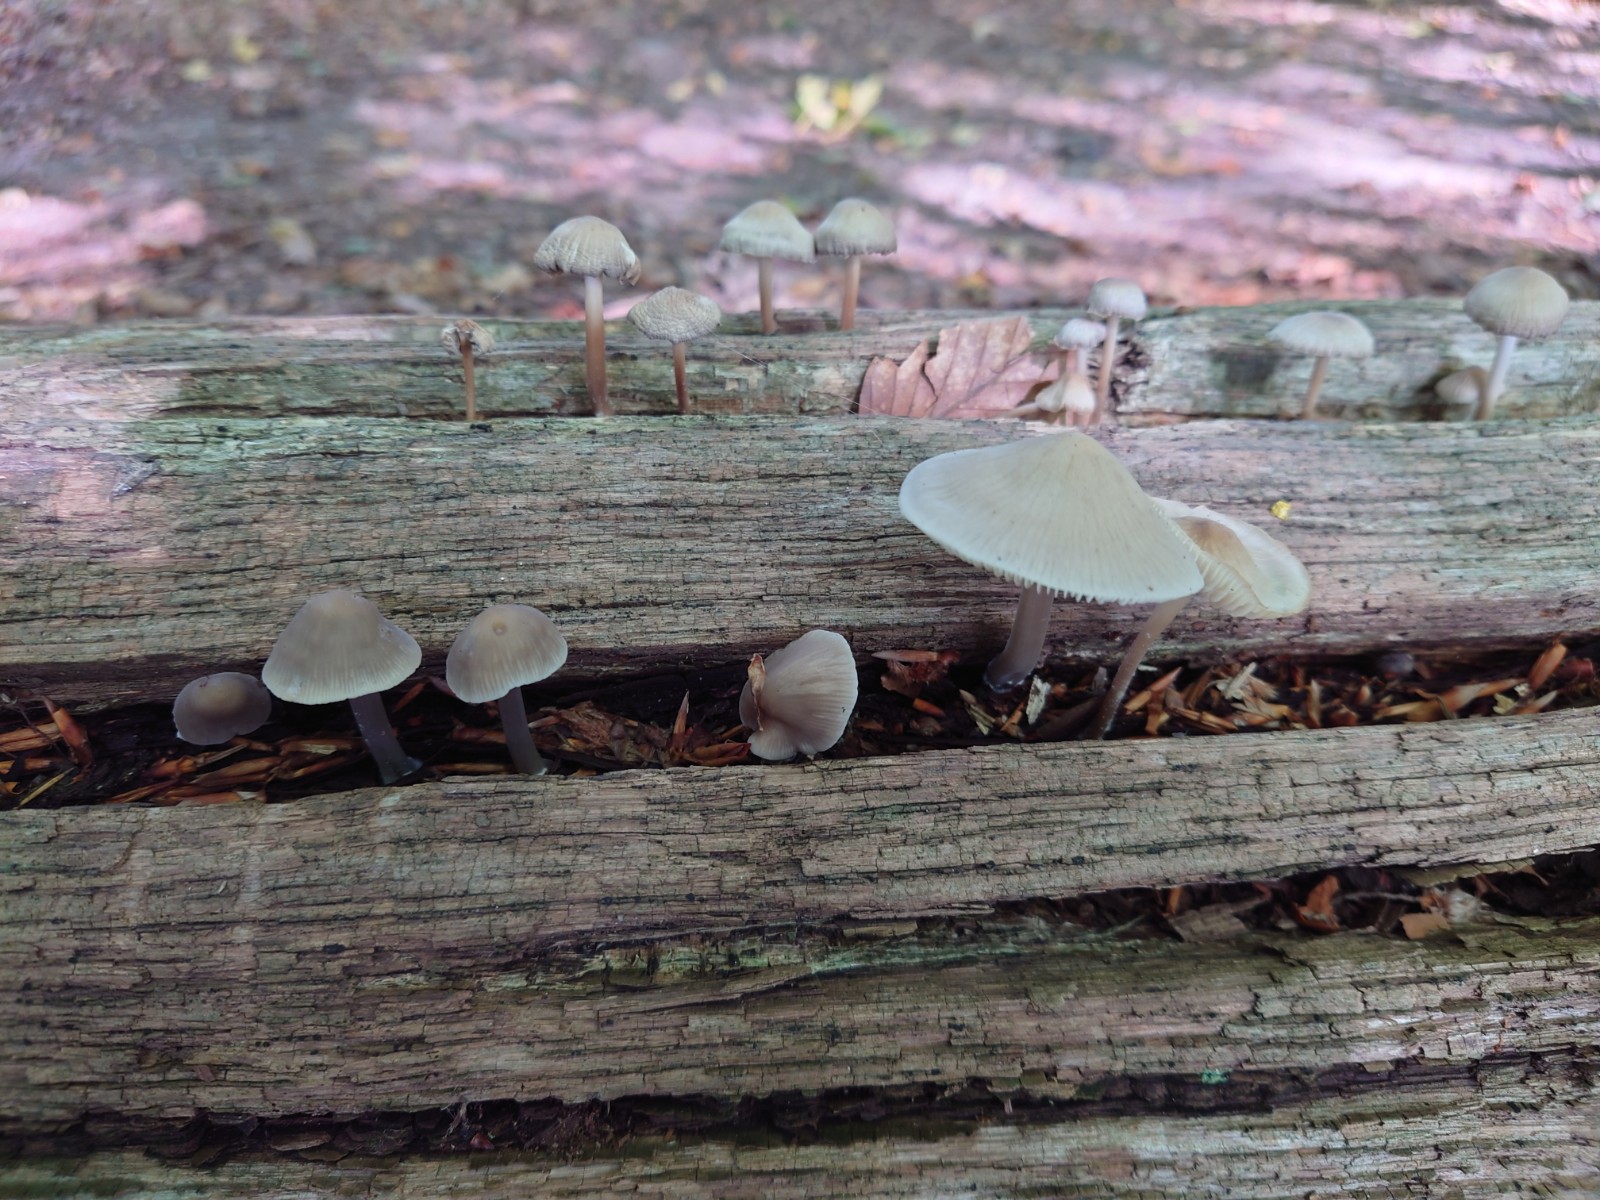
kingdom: Fungi
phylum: Basidiomycota
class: Agaricomycetes
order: Agaricales
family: Mycenaceae
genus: Mycena
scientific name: Mycena galericulata
